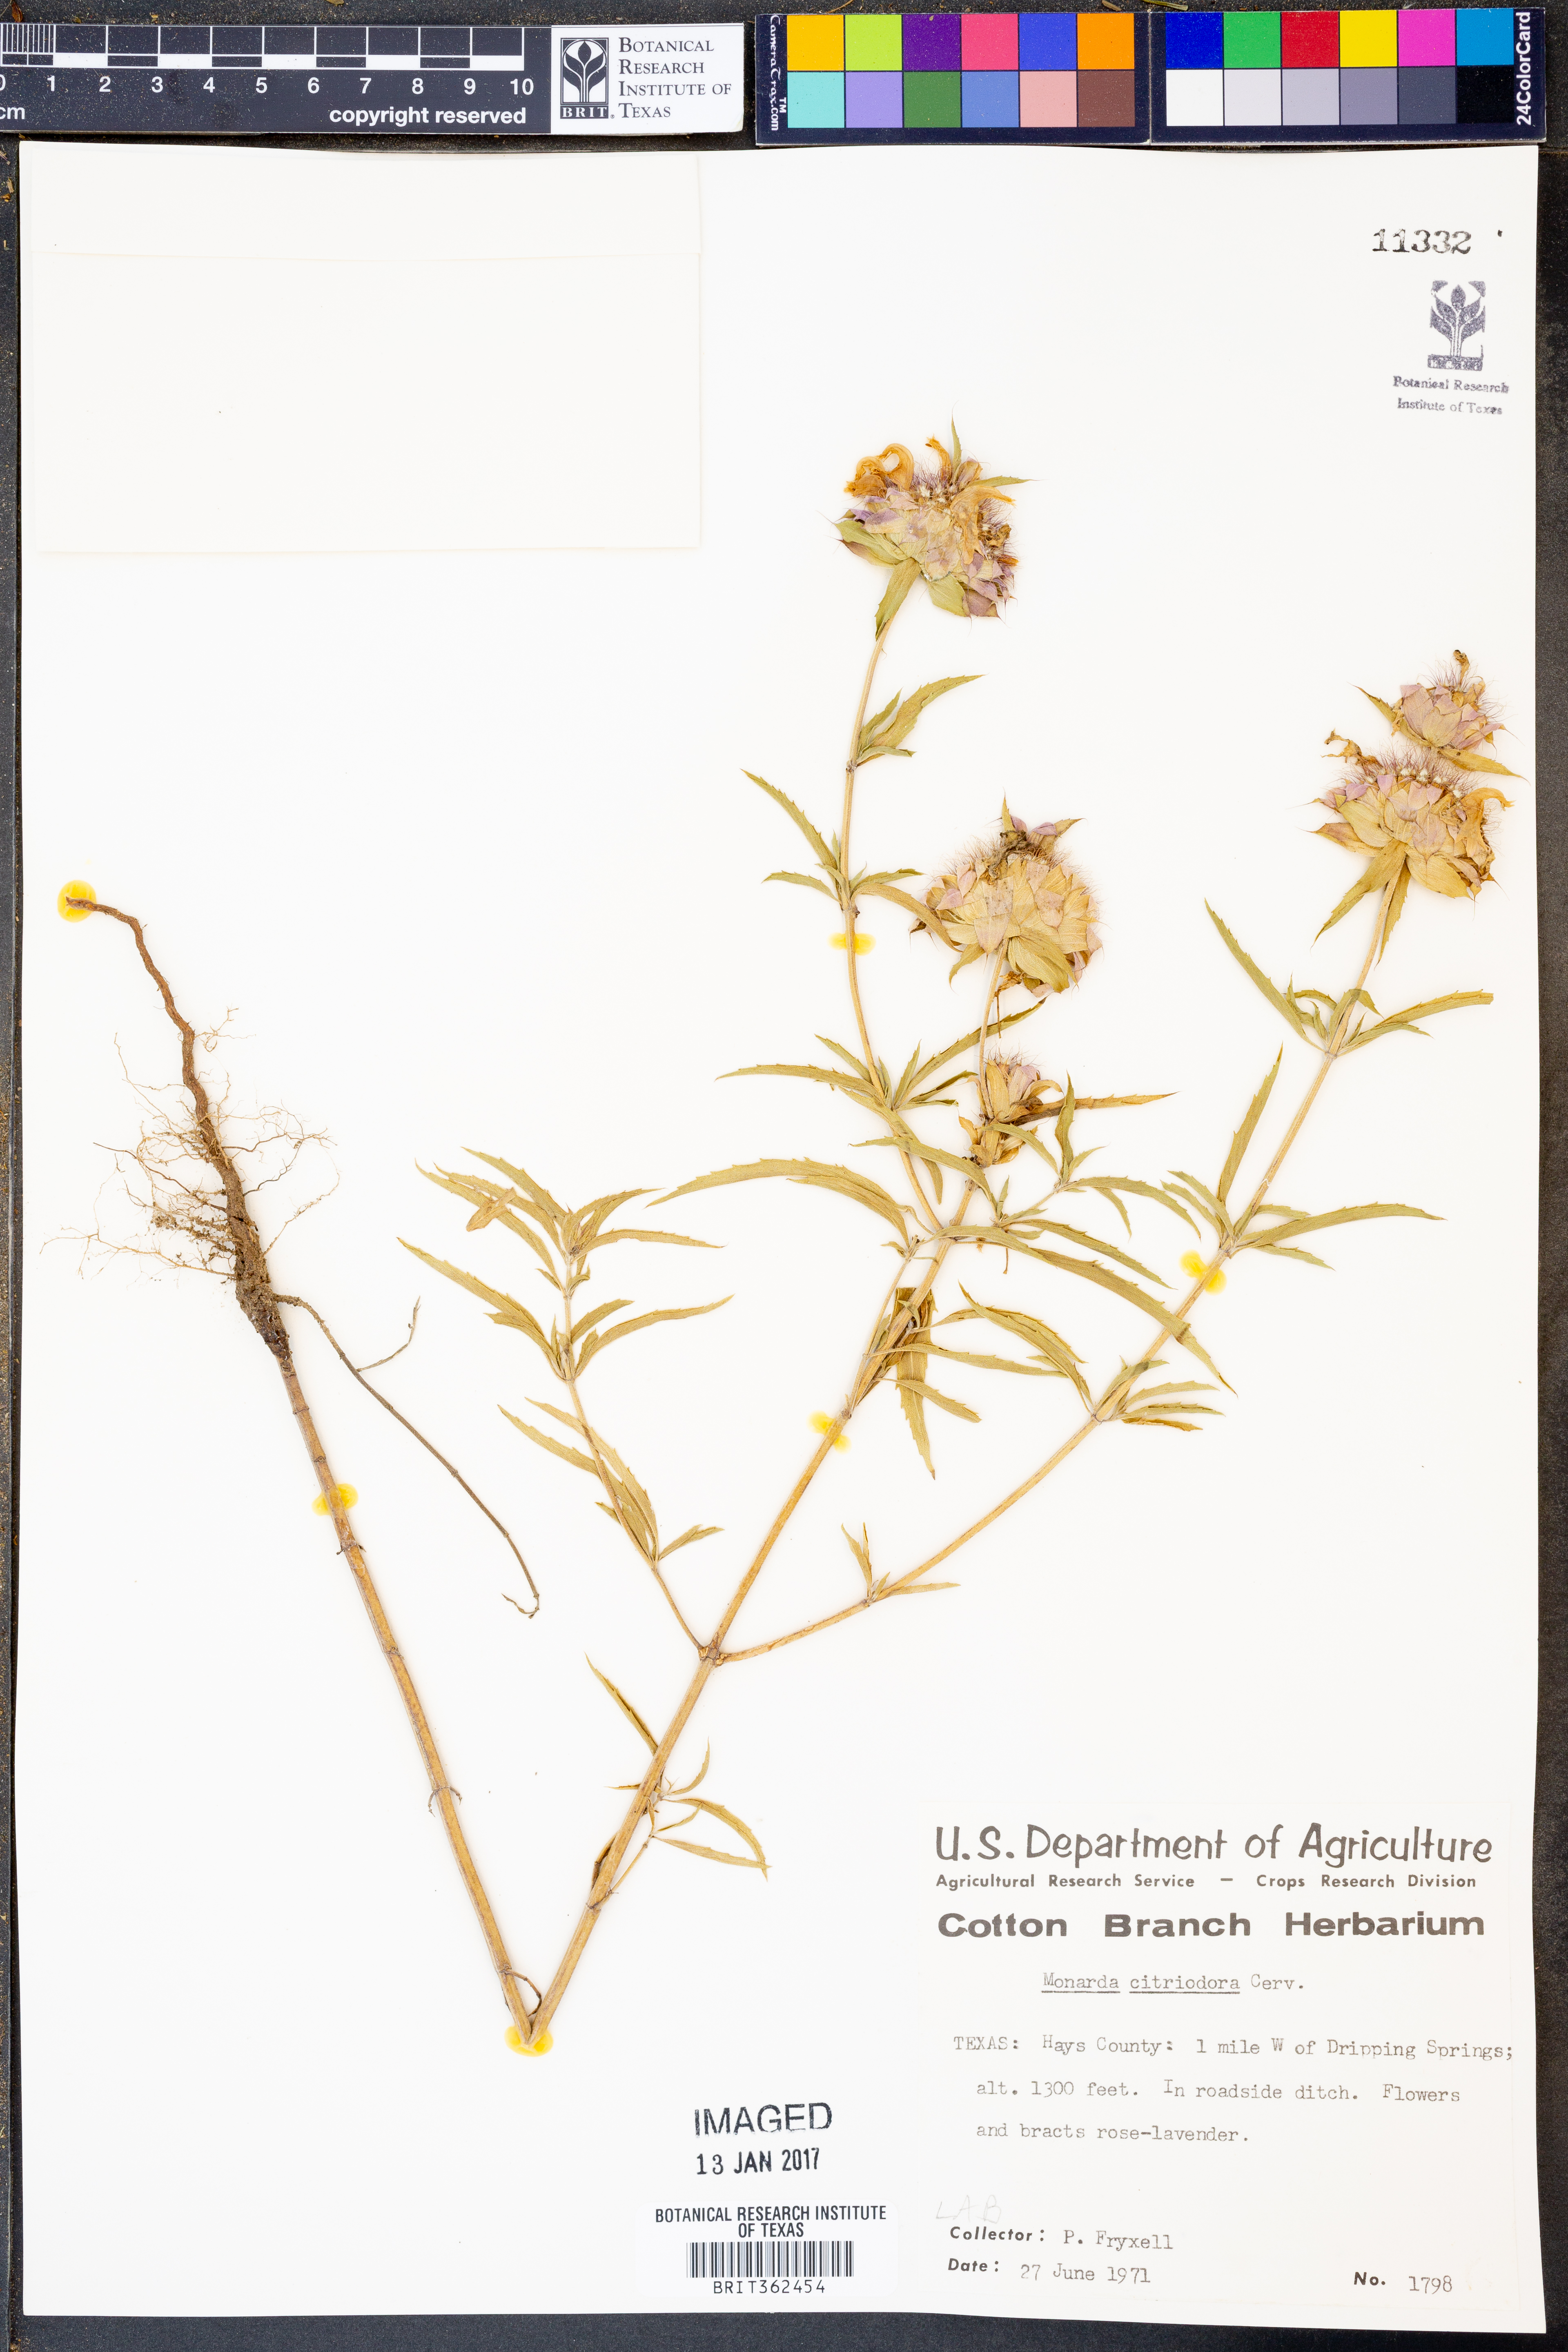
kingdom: Plantae
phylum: Tracheophyta
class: Magnoliopsida
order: Lamiales
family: Lamiaceae
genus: Monarda
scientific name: Monarda citriodora
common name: Lemon beebalm
